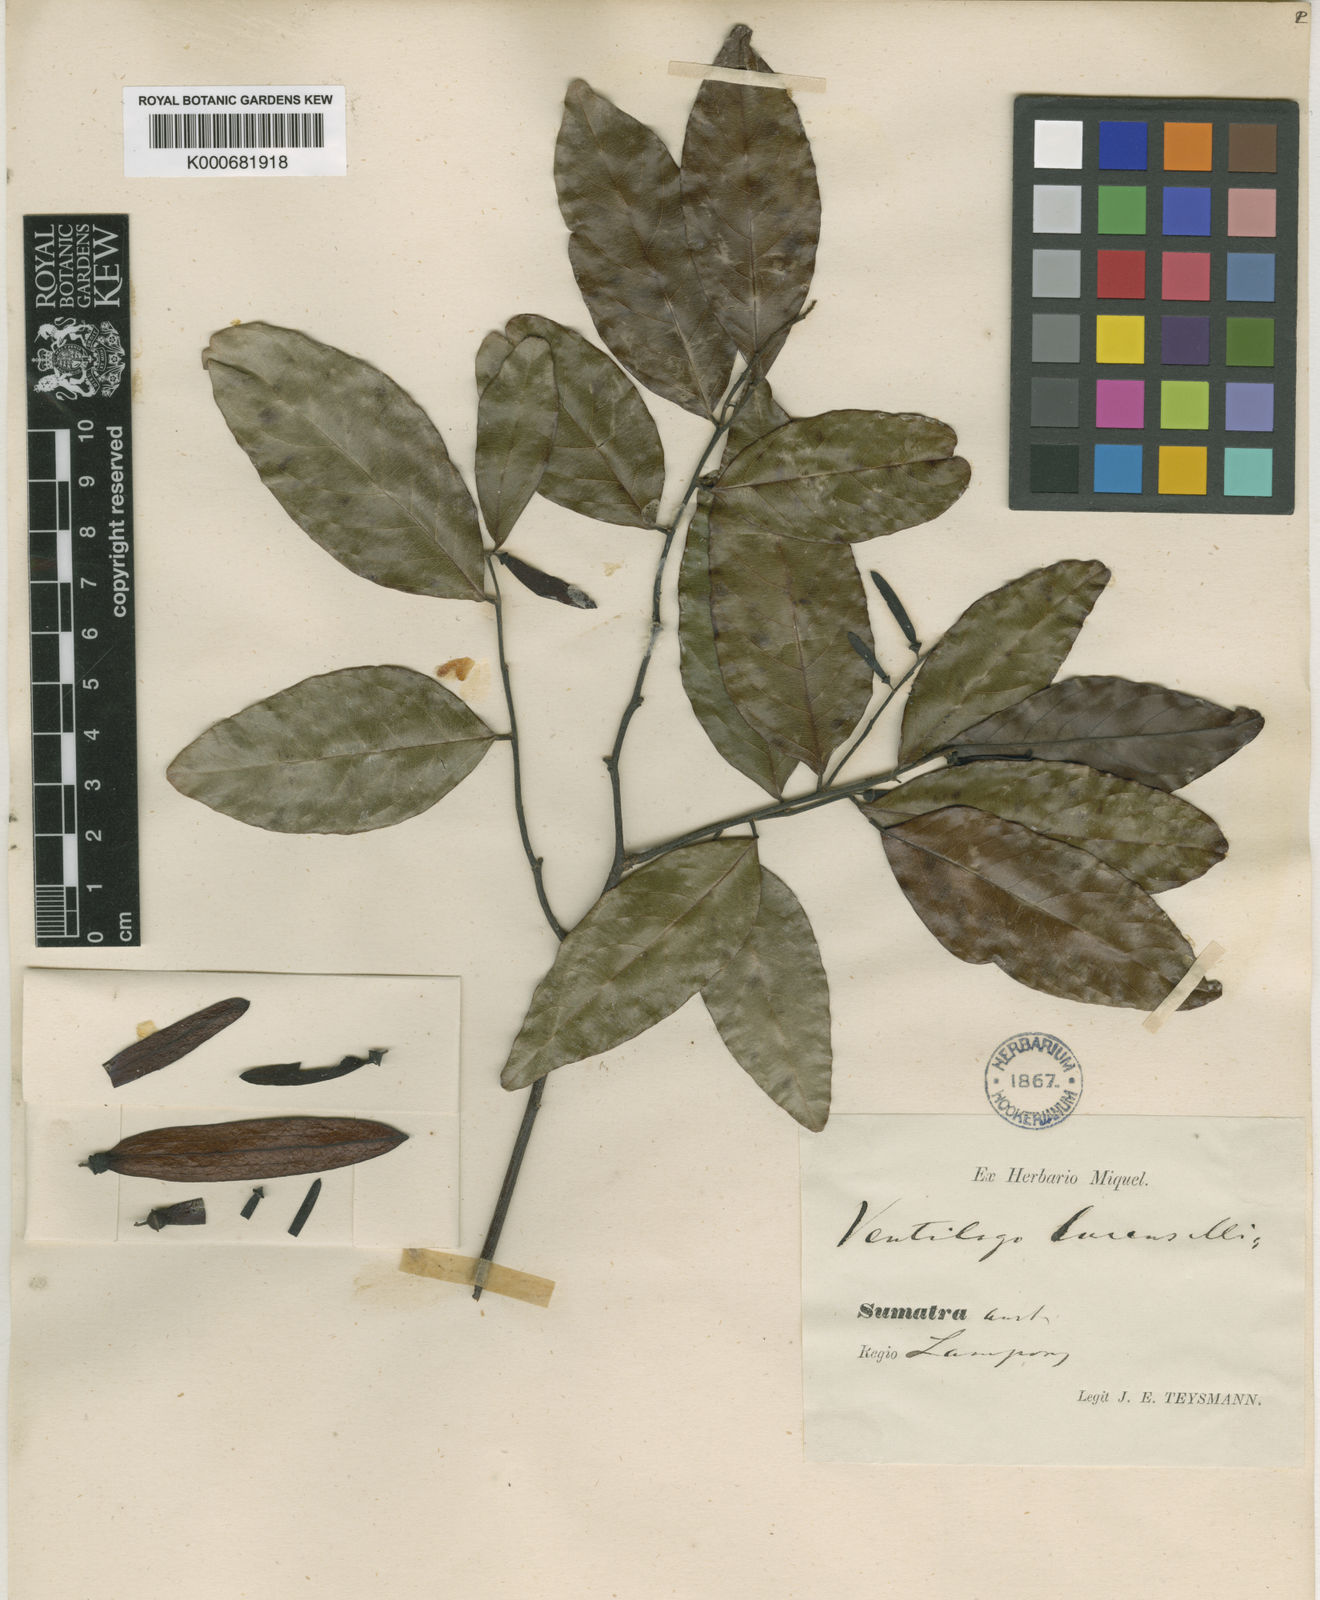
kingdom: Plantae
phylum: Tracheophyta
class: Magnoliopsida
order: Rosales
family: Rhamnaceae
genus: Ventilago
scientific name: Ventilago lucens
